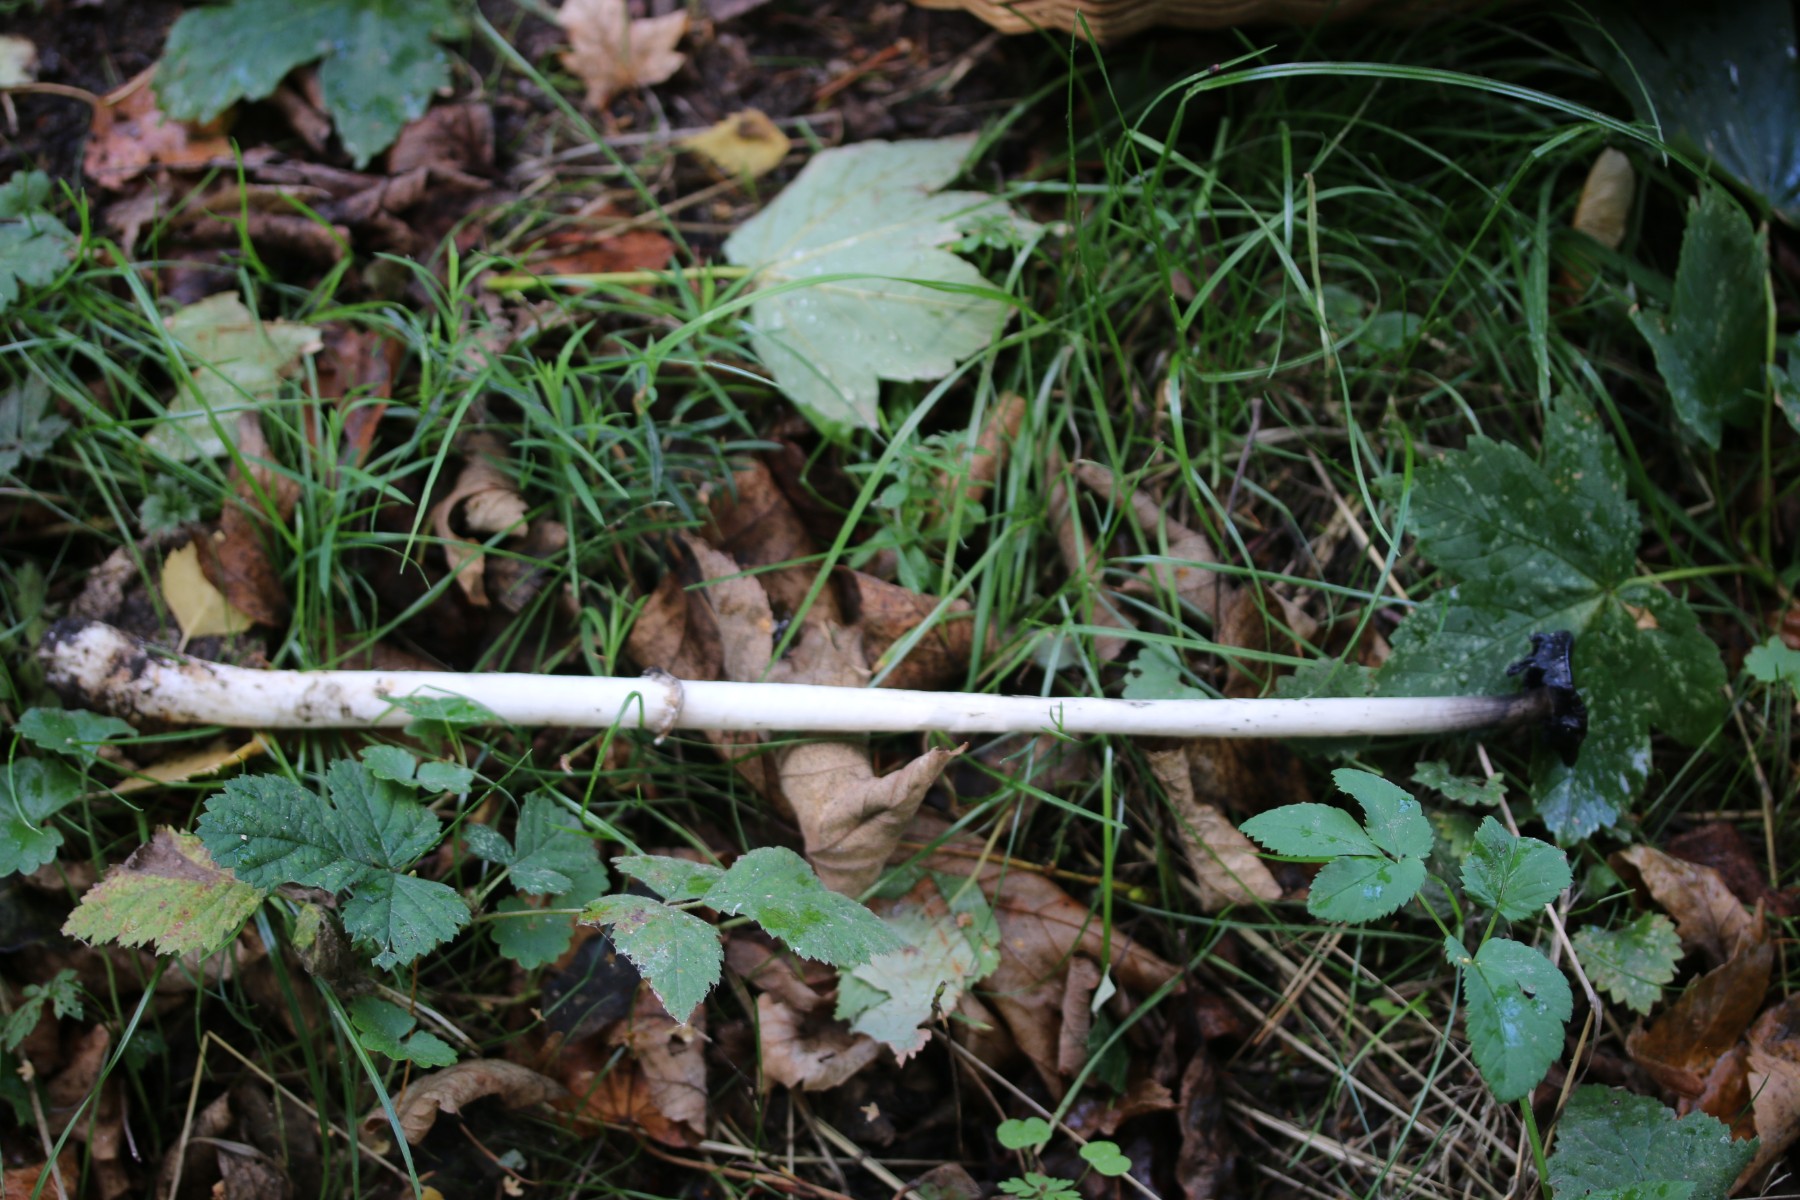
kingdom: Fungi
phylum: Basidiomycota
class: Agaricomycetes
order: Agaricales
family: Agaricaceae
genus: Coprinus
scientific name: Coprinus comatus
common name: stor parykhat
